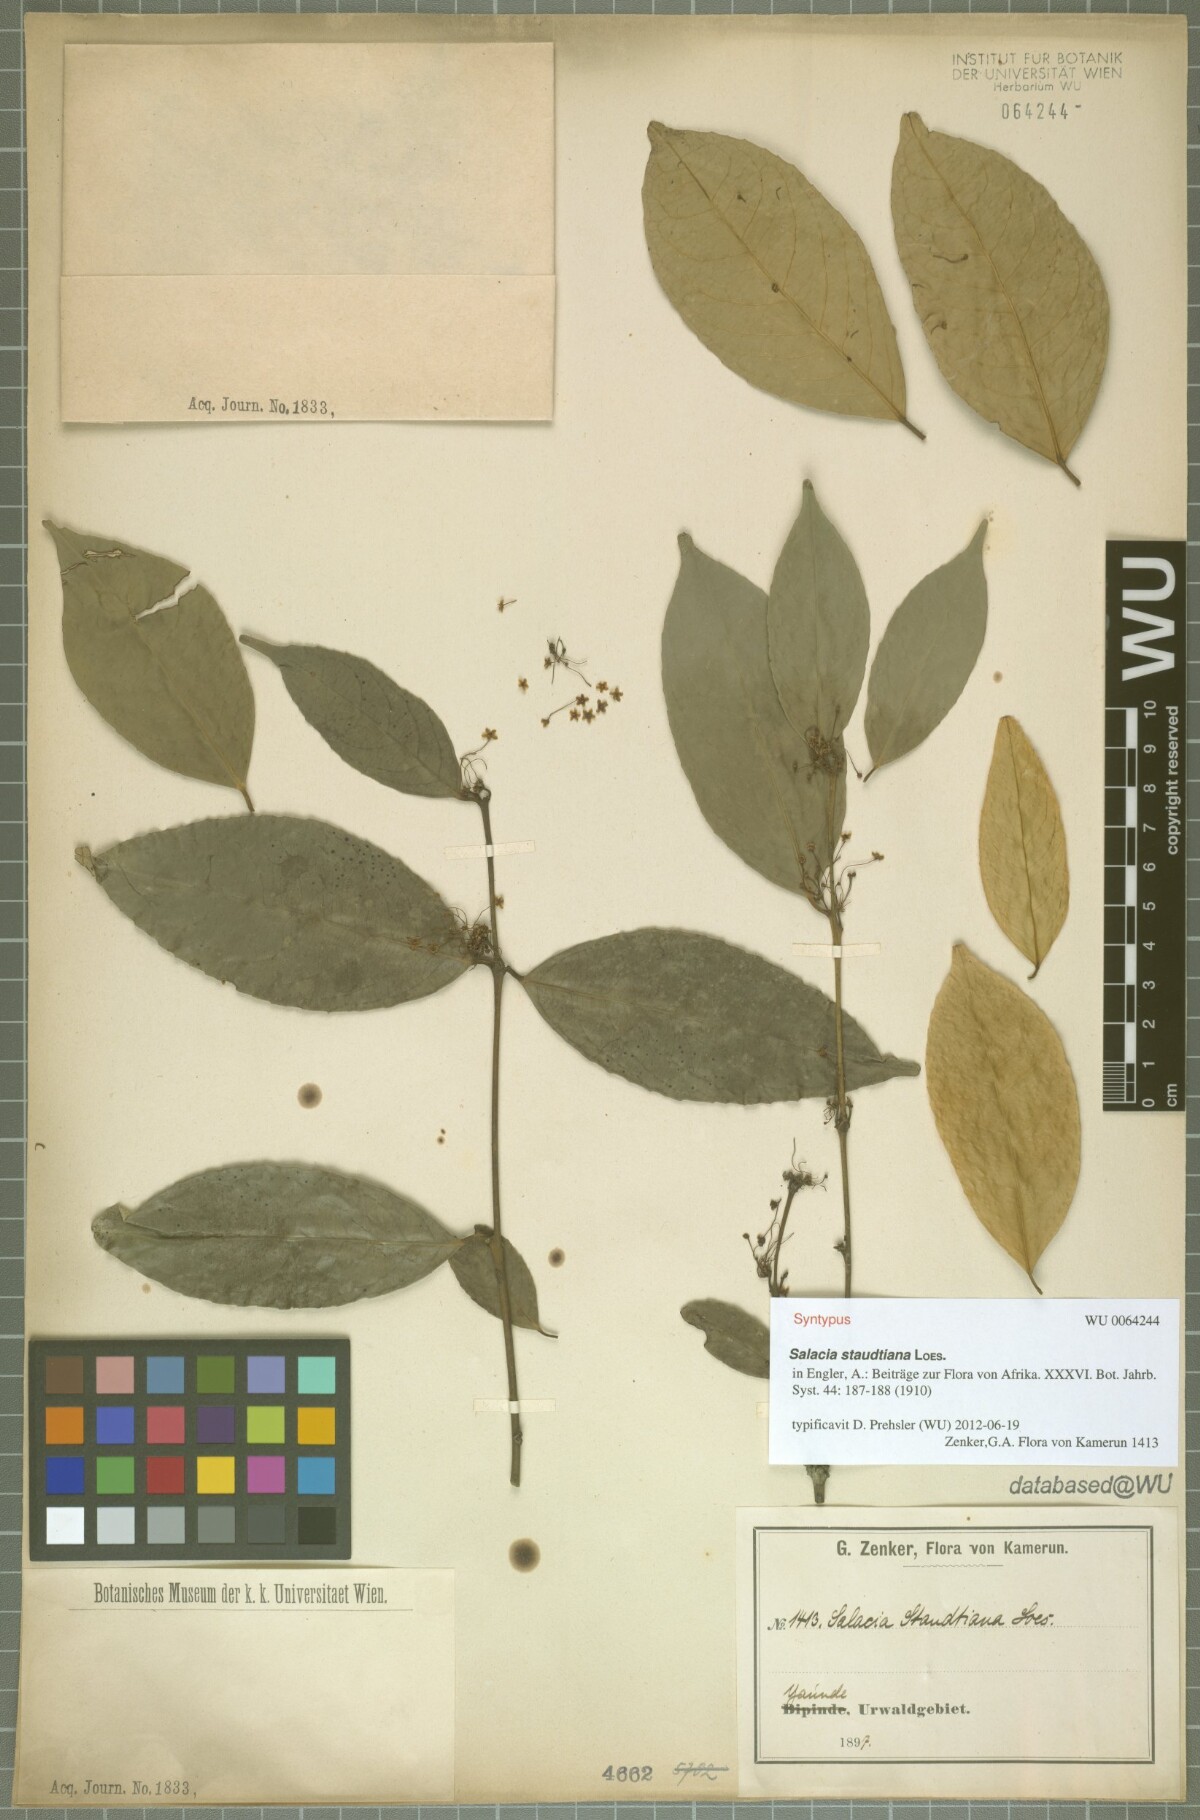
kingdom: Plantae
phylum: Tracheophyta
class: Magnoliopsida
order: Celastrales
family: Celastraceae
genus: Salacia
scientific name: Salacia staudtiana
